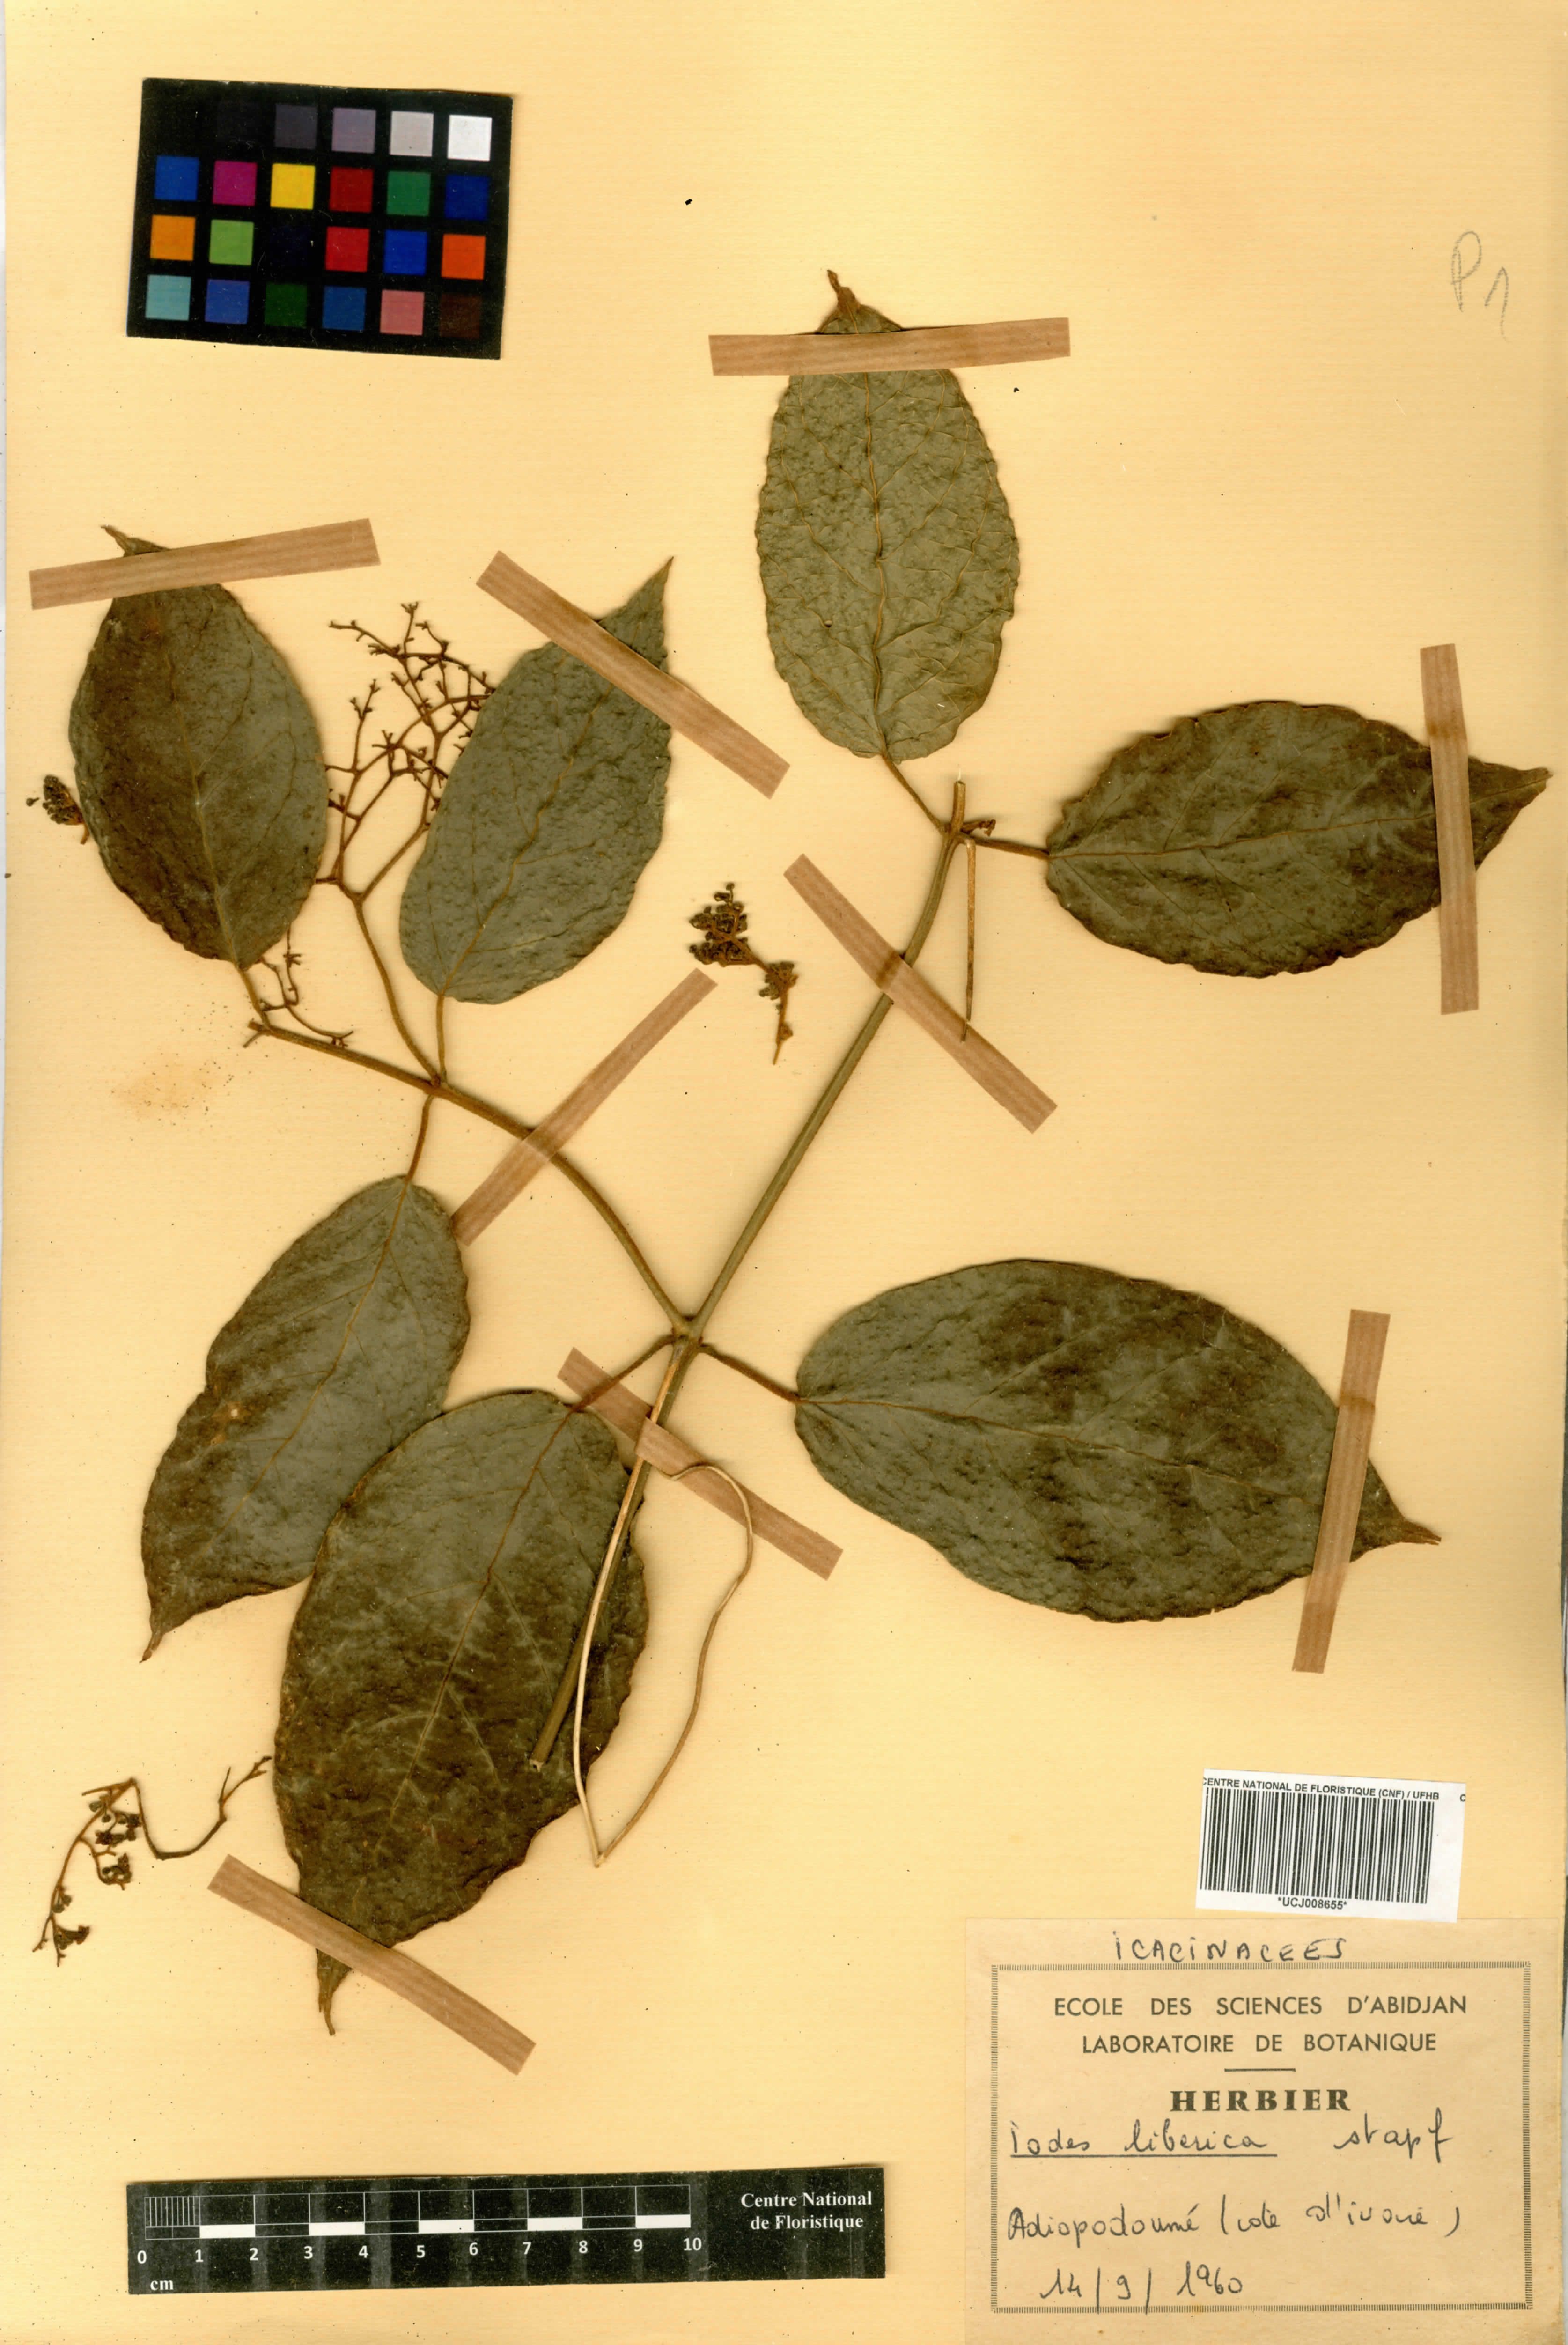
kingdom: Plantae
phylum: Tracheophyta
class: Magnoliopsida
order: Icacinales
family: Icacinaceae
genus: Iodes
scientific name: Iodes liberica
